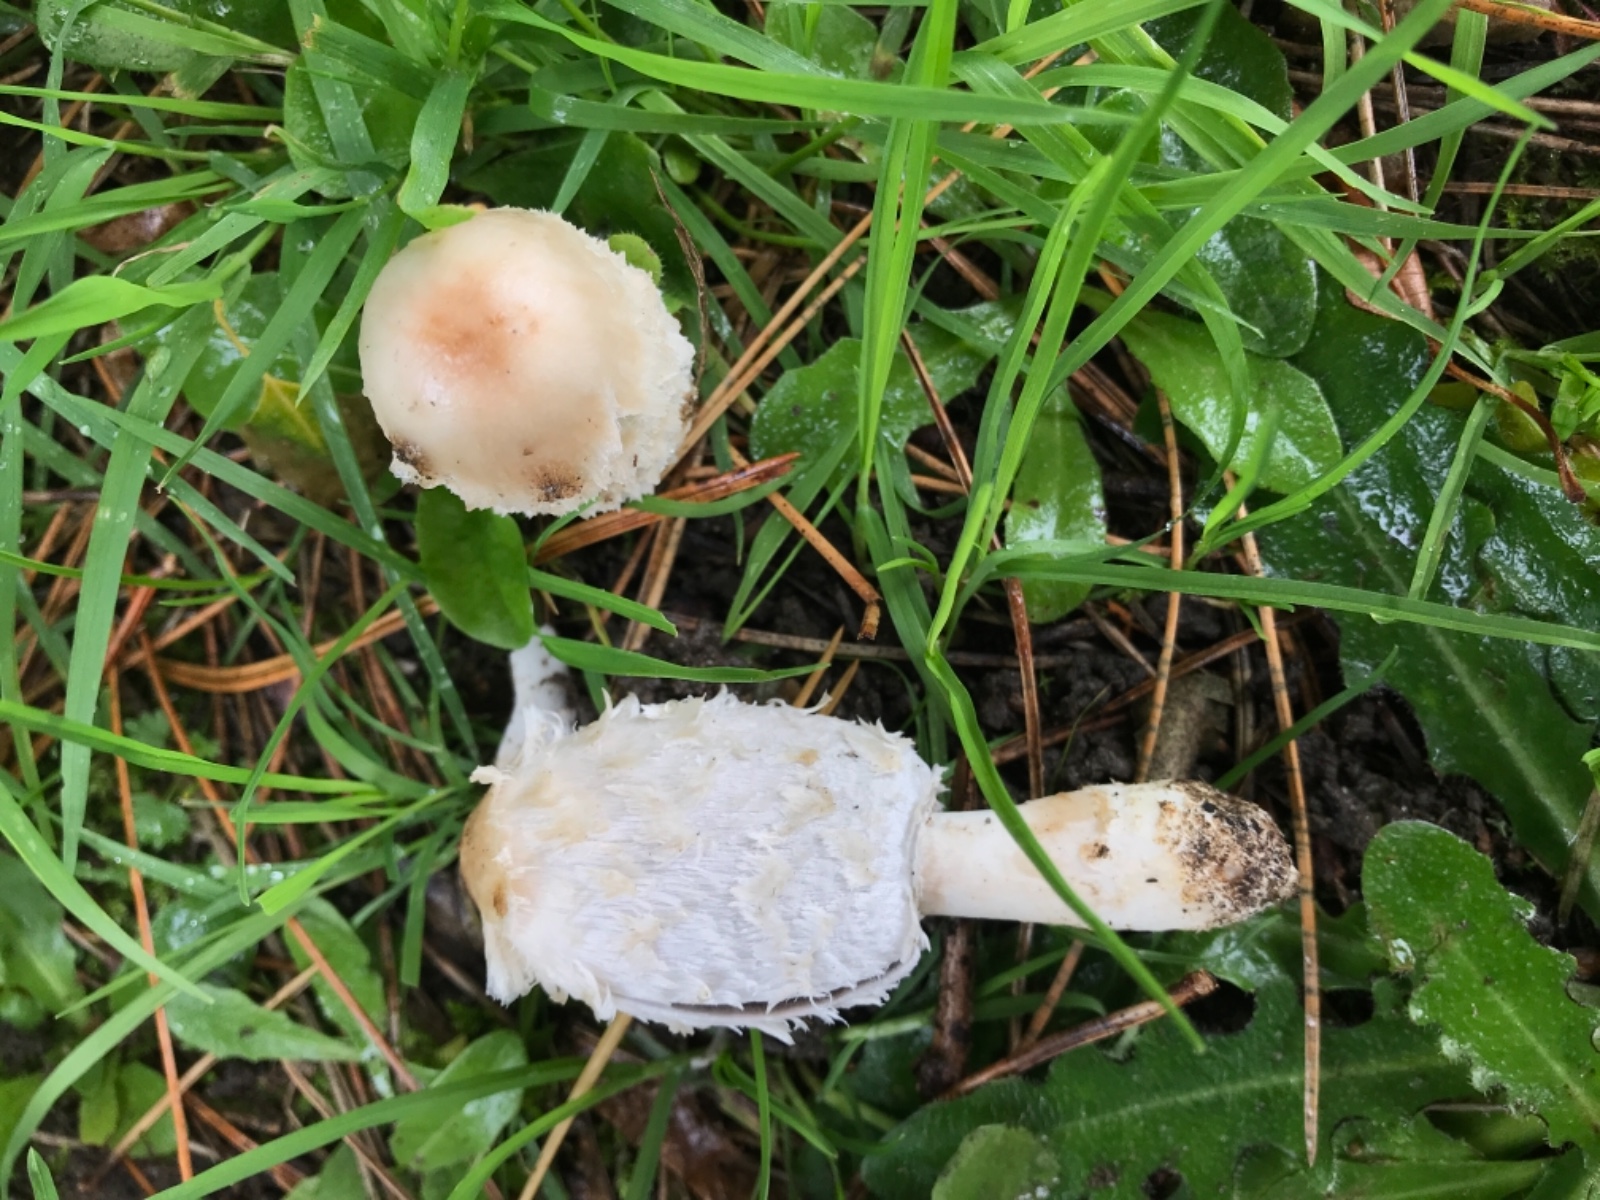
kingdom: Fungi
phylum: Basidiomycota
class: Agaricomycetes
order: Agaricales
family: Agaricaceae
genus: Coprinus
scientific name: Coprinus comatus
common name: stor parykhat
